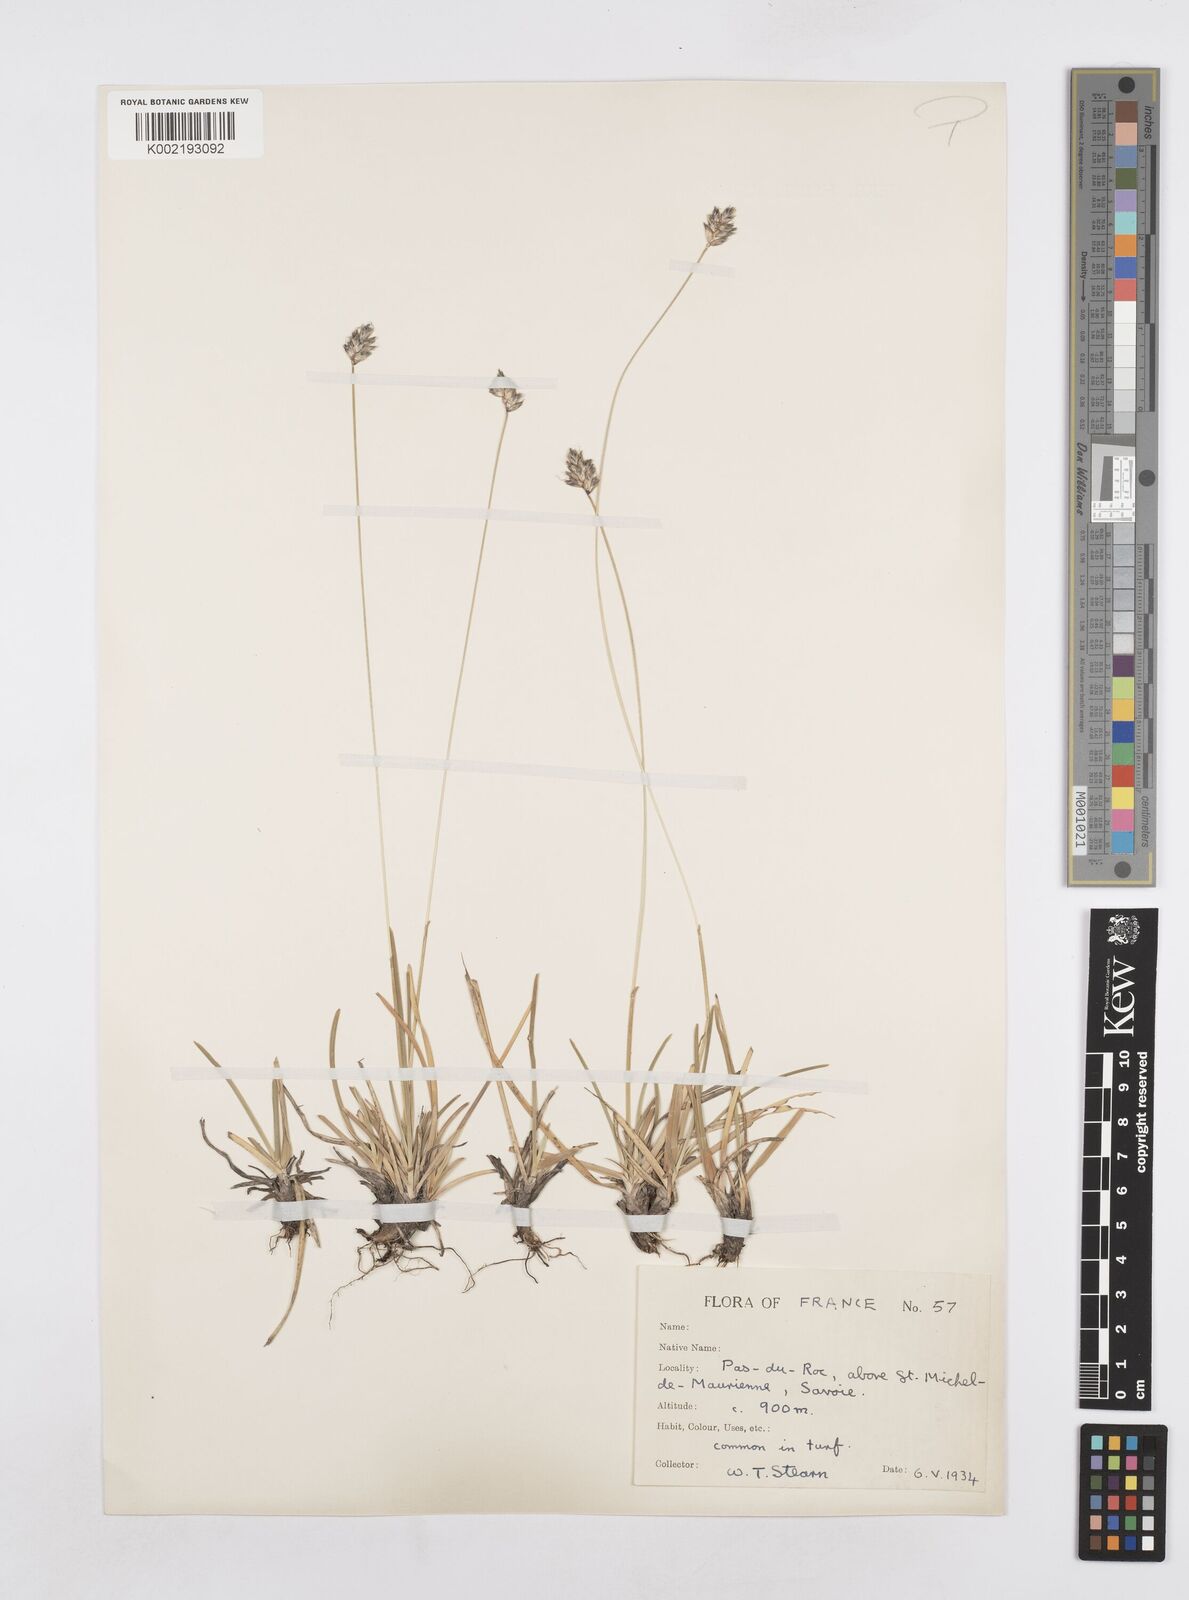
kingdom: Plantae
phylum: Tracheophyta
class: Liliopsida
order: Poales
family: Poaceae
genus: Sesleria
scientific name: Sesleria
